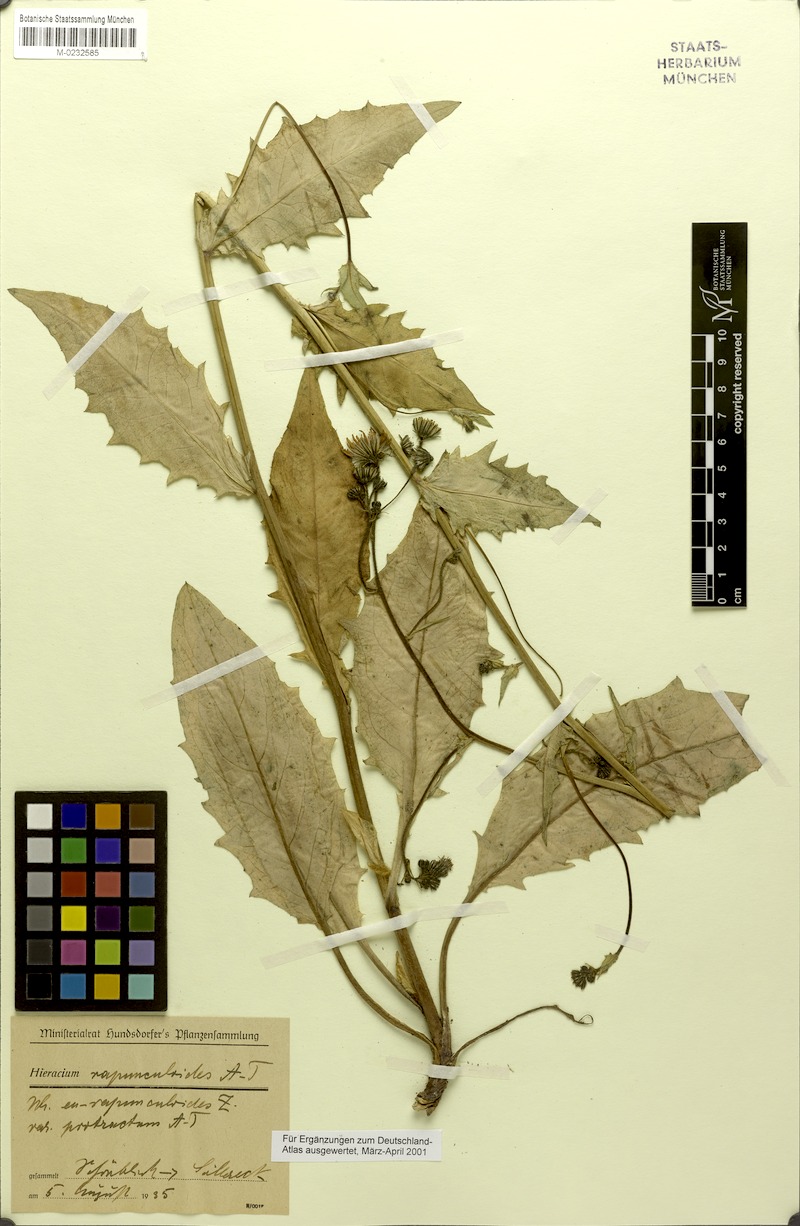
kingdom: Plantae
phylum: Tracheophyta
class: Magnoliopsida
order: Asterales
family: Asteraceae
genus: Hieracium
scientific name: Hieracium rapunculoides
